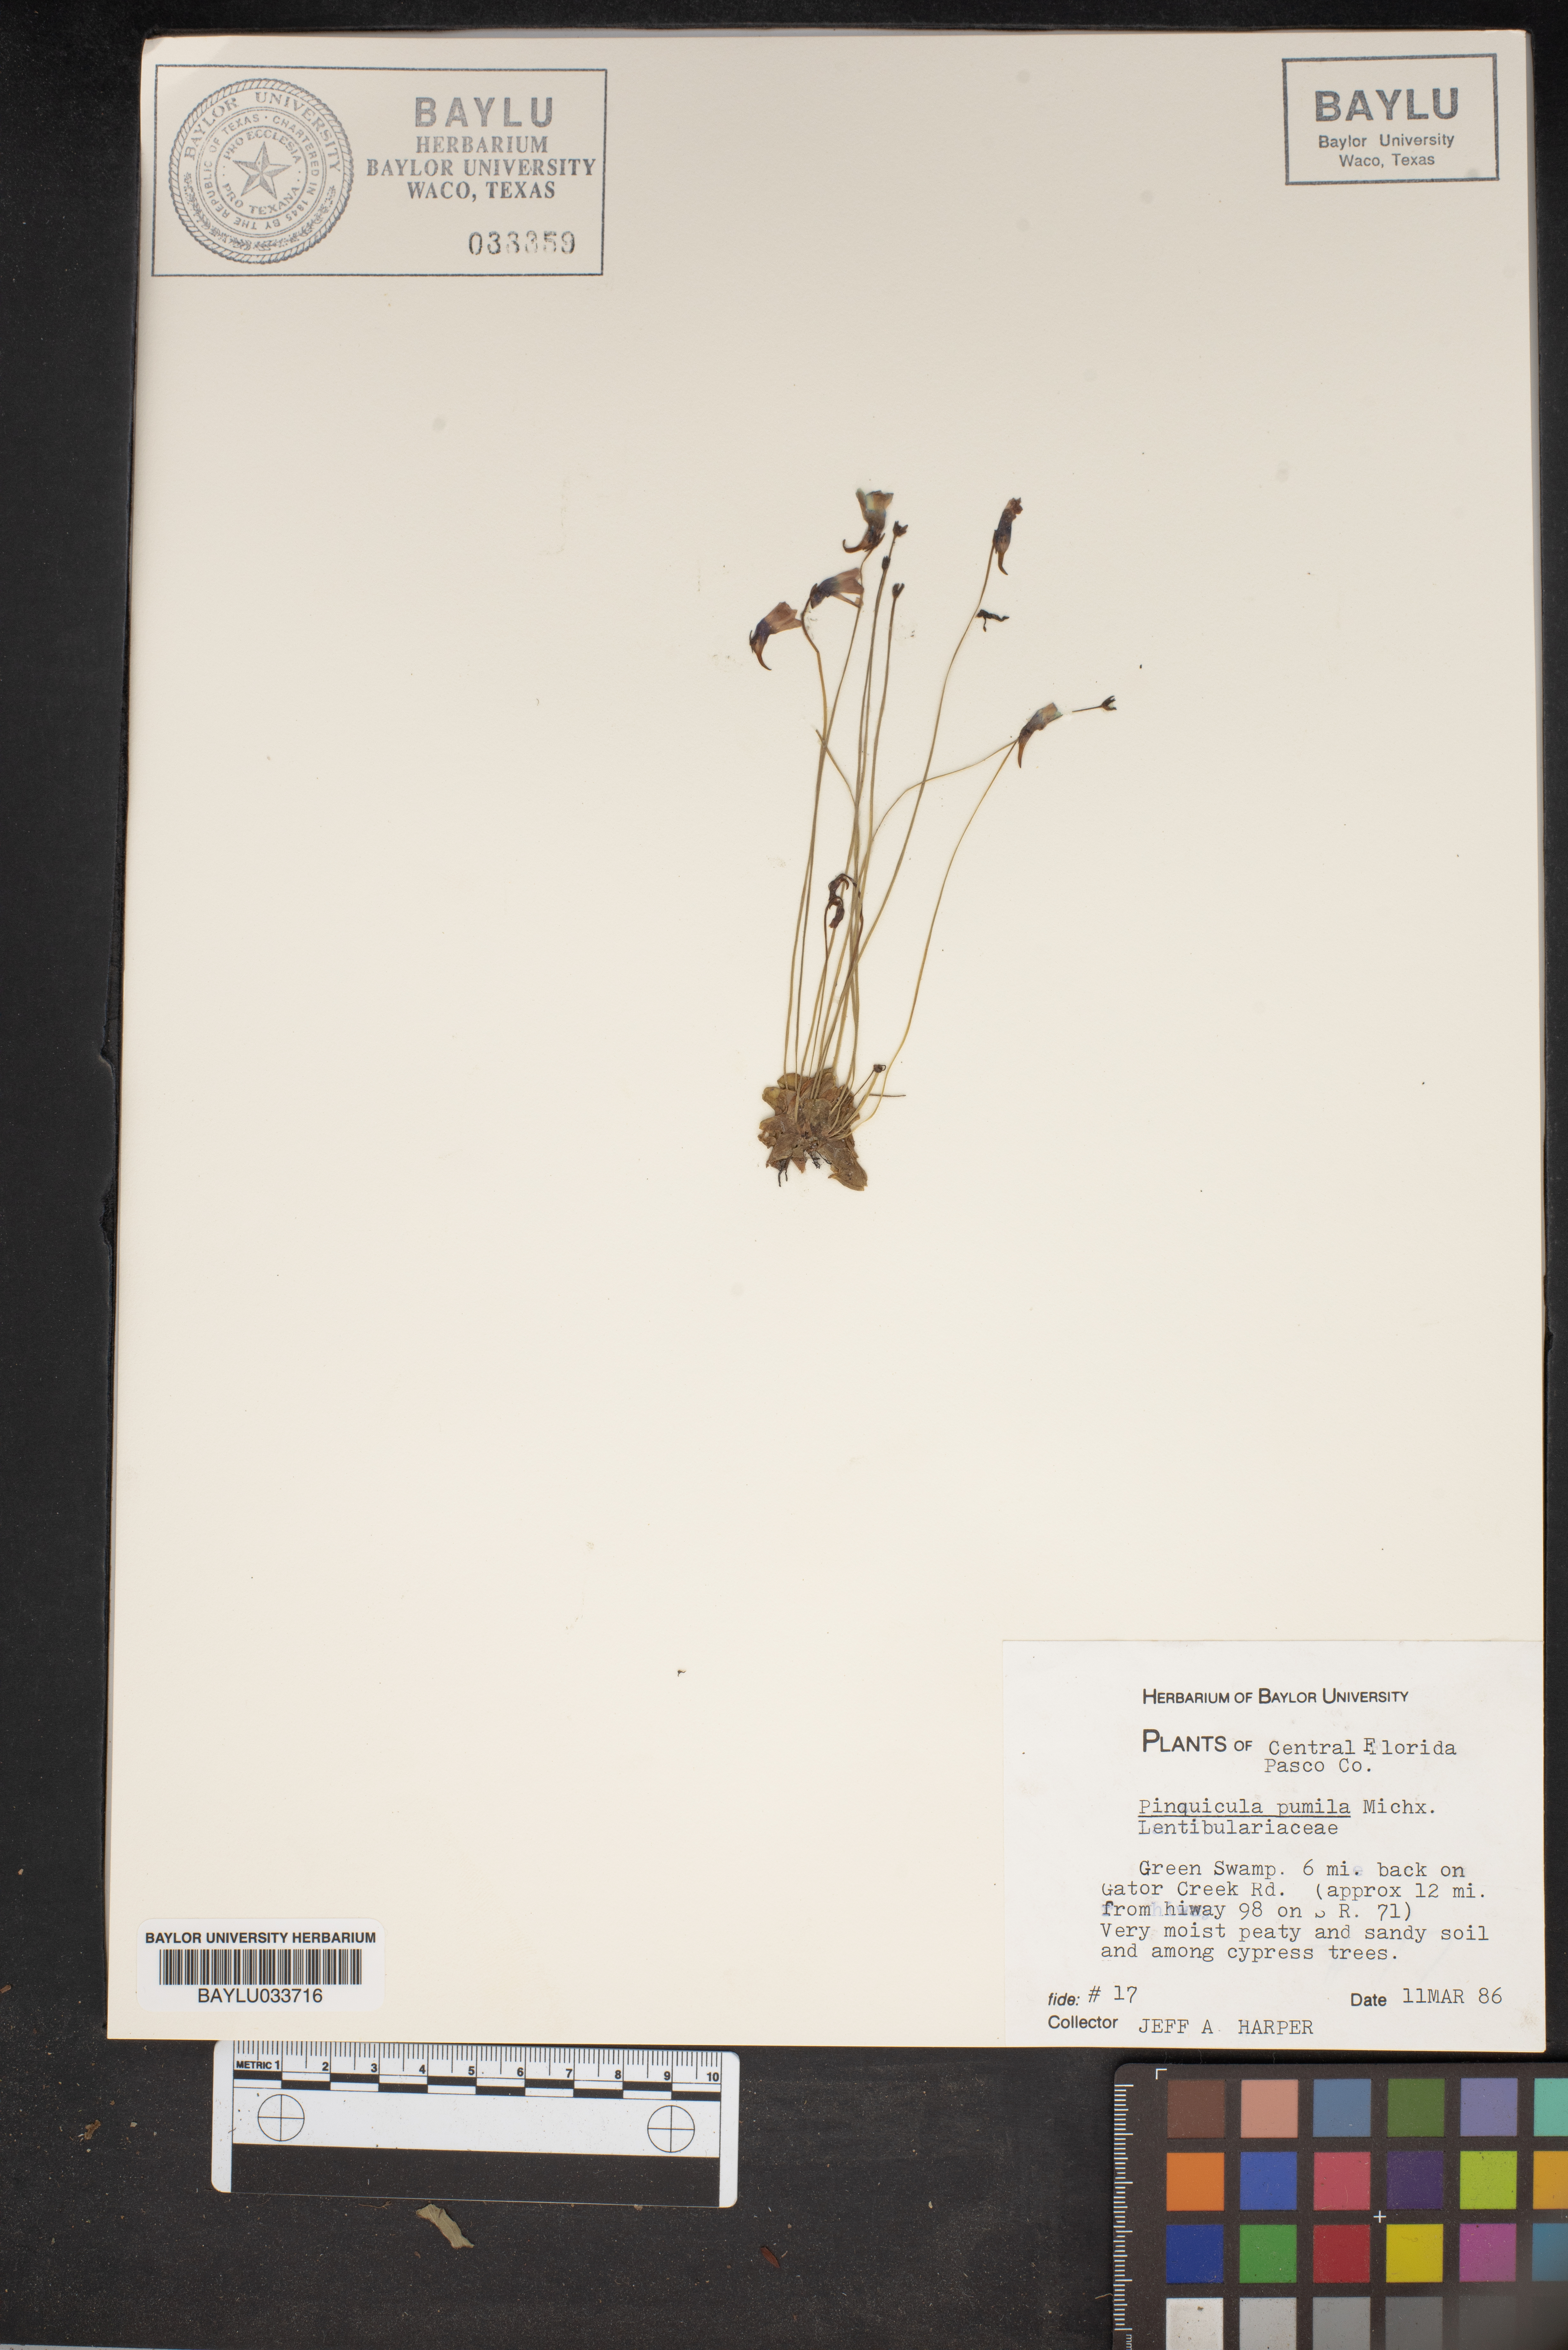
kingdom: Plantae
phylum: Tracheophyta
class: Magnoliopsida
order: Lamiales
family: Lentibulariaceae
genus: Pinguicula
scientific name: Pinguicula pumila
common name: Small butterwort
